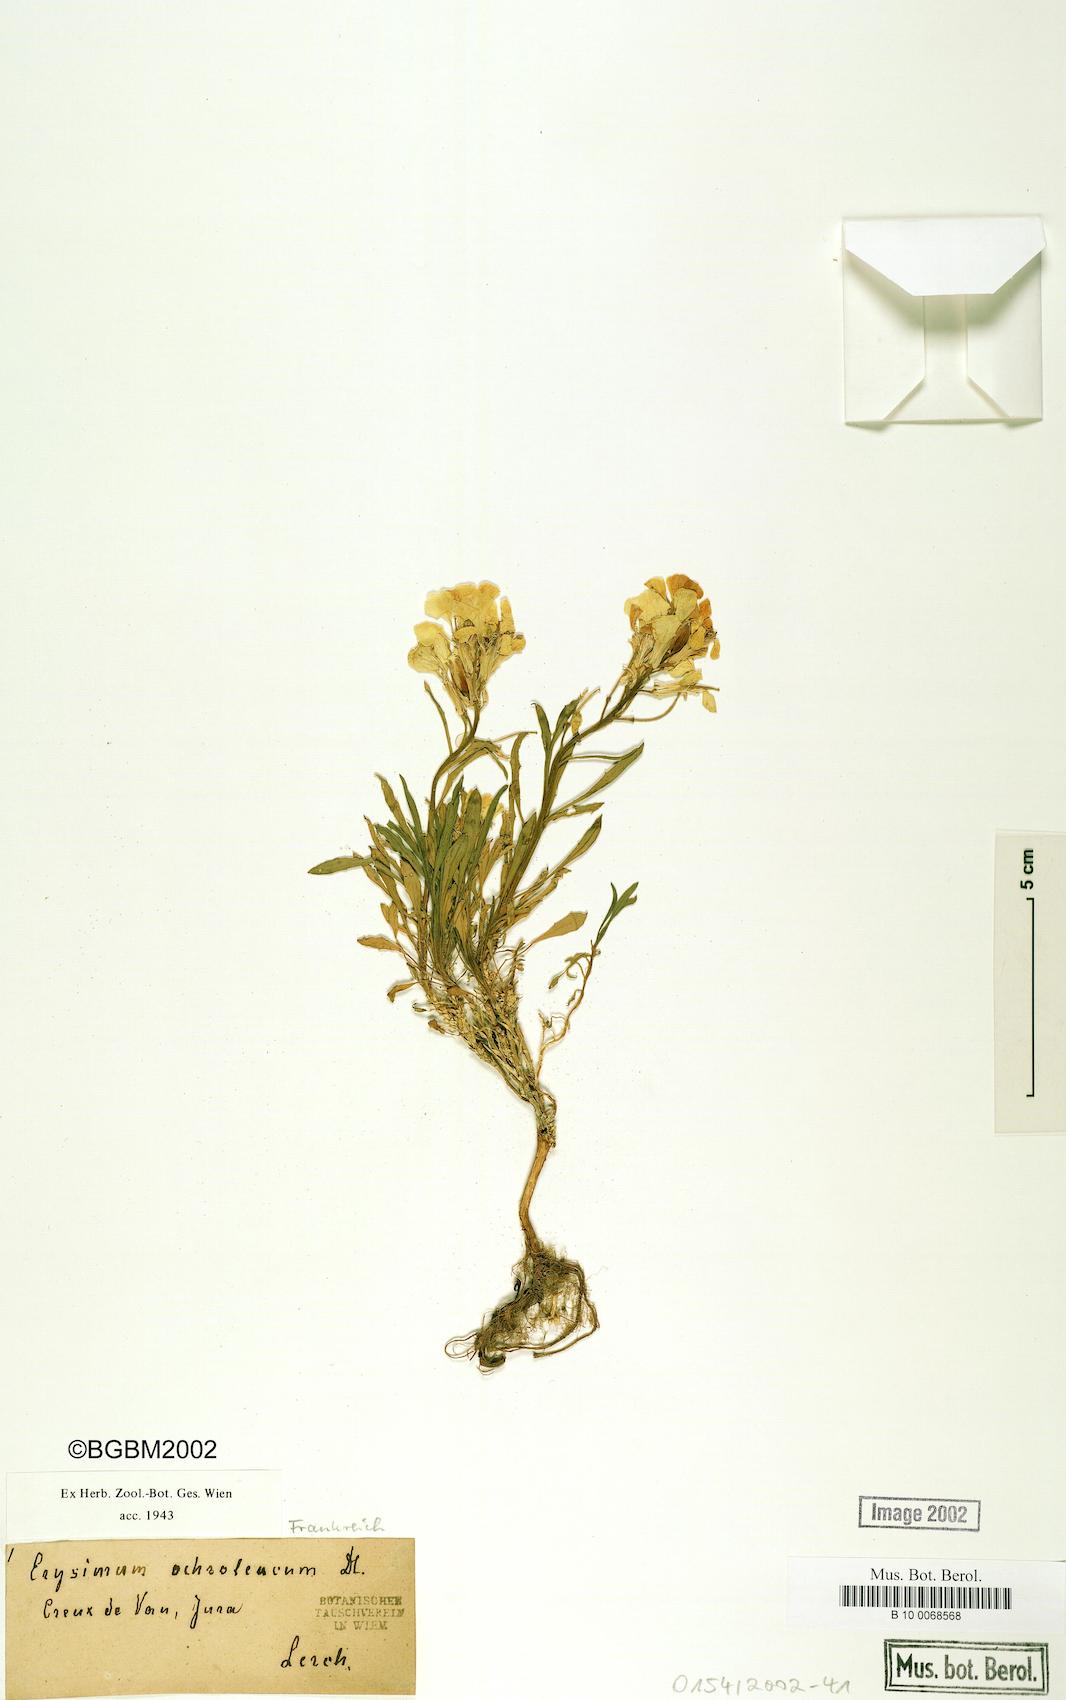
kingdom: Plantae
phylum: Tracheophyta
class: Magnoliopsida
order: Brassicales
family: Brassicaceae
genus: Erysimum
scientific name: Erysimum humile
